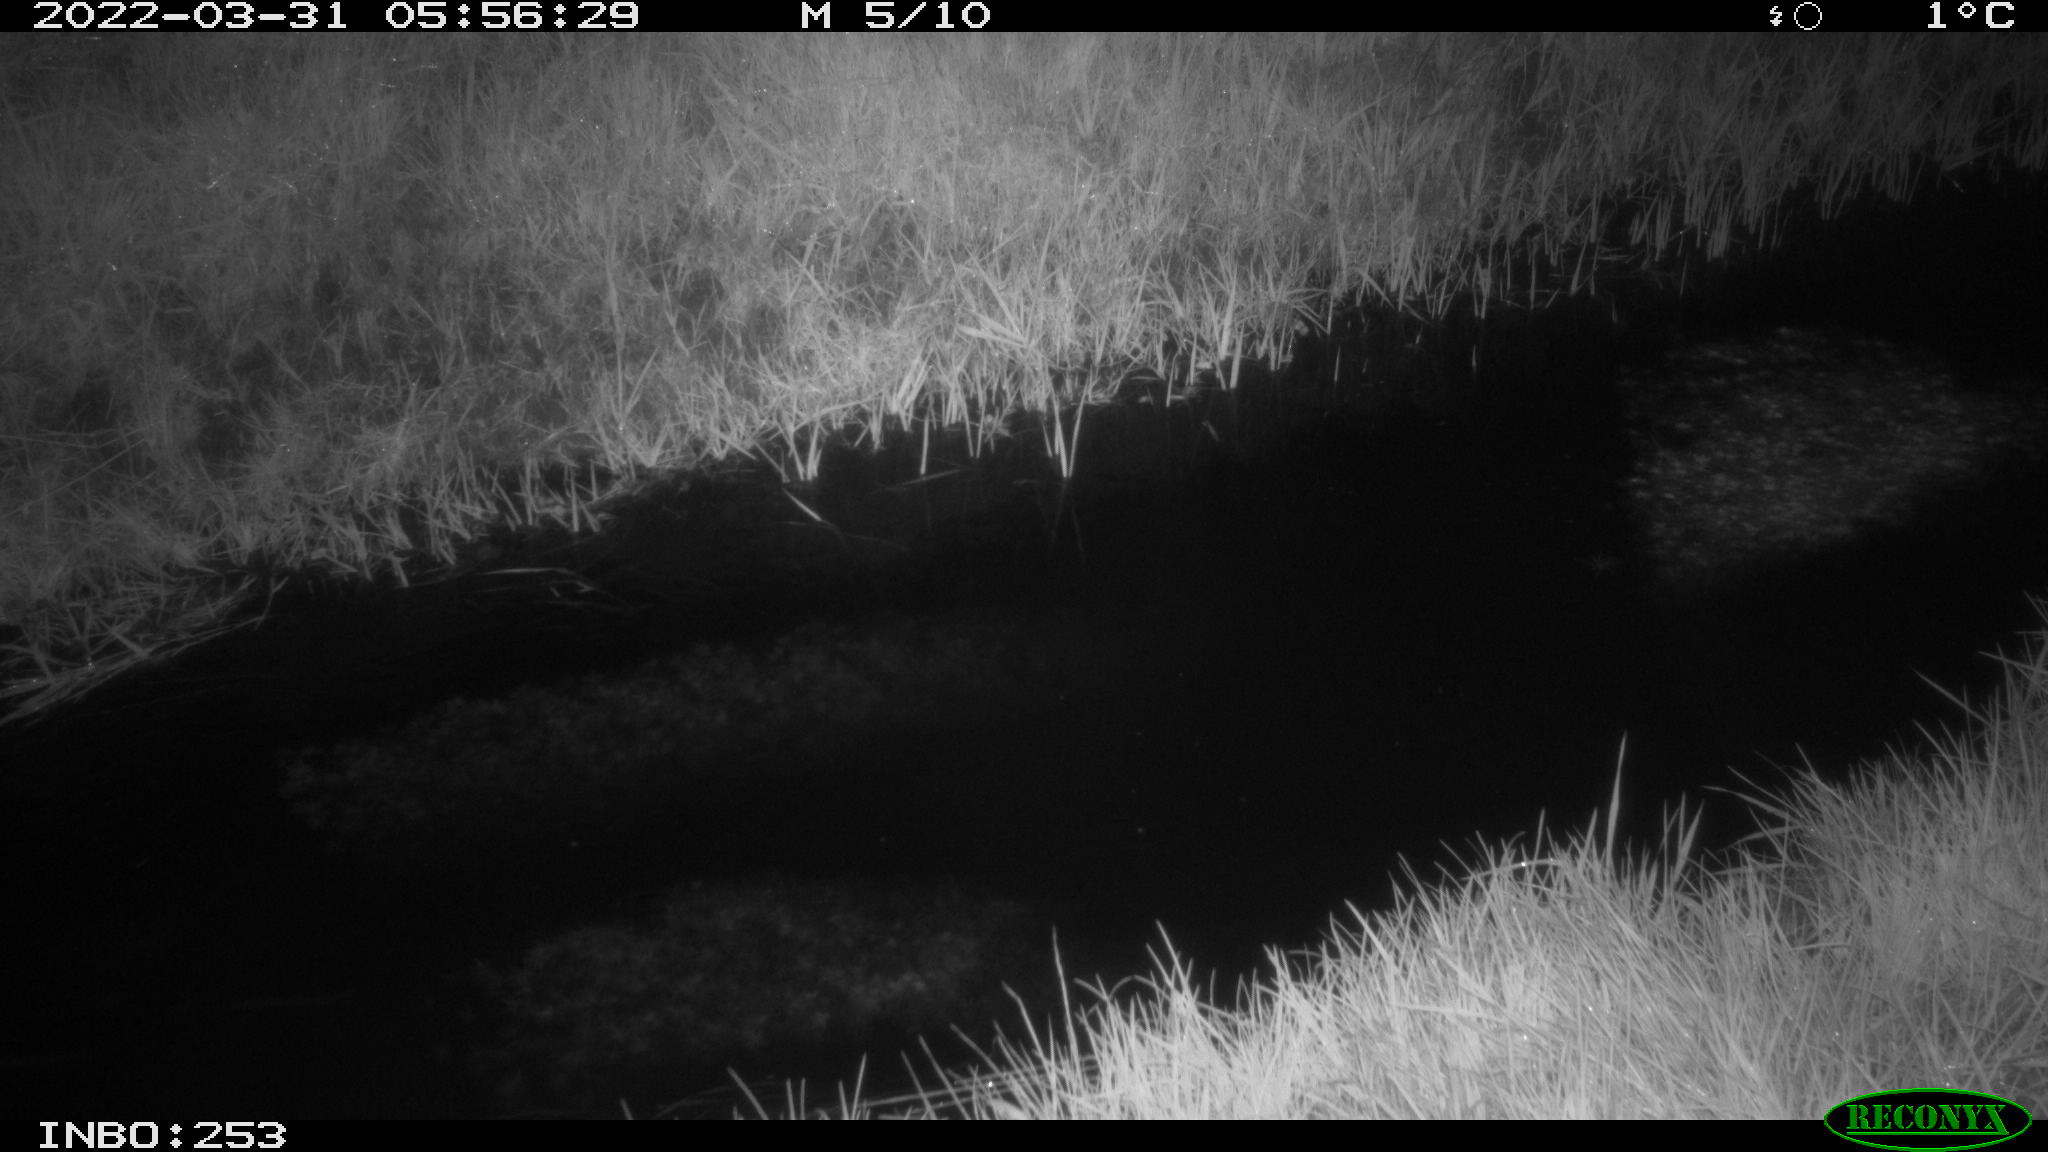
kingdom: Animalia
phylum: Chordata
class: Aves
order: Anseriformes
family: Anatidae
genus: Anas
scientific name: Anas platyrhynchos
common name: Mallard
